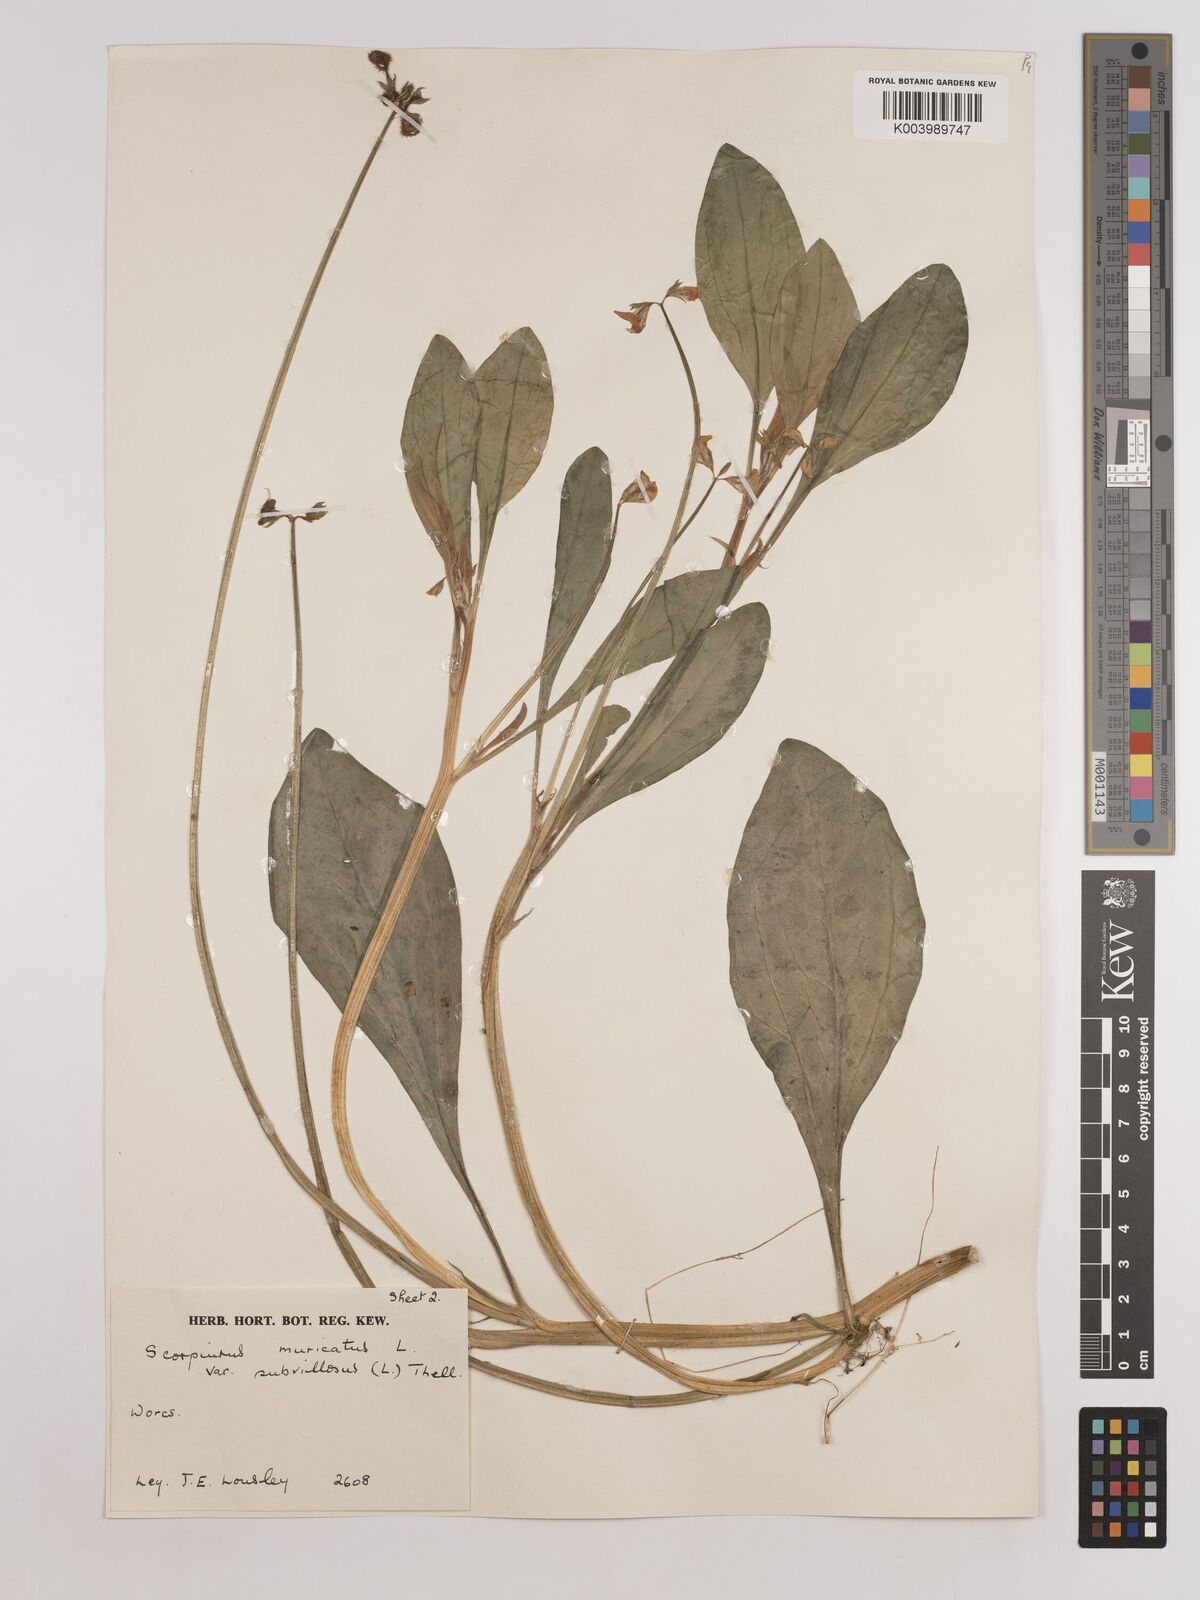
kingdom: Plantae
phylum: Tracheophyta
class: Magnoliopsida
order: Fabales
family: Fabaceae
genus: Scorpiurus
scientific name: Scorpiurus muricatus
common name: Caterpillar-plant
